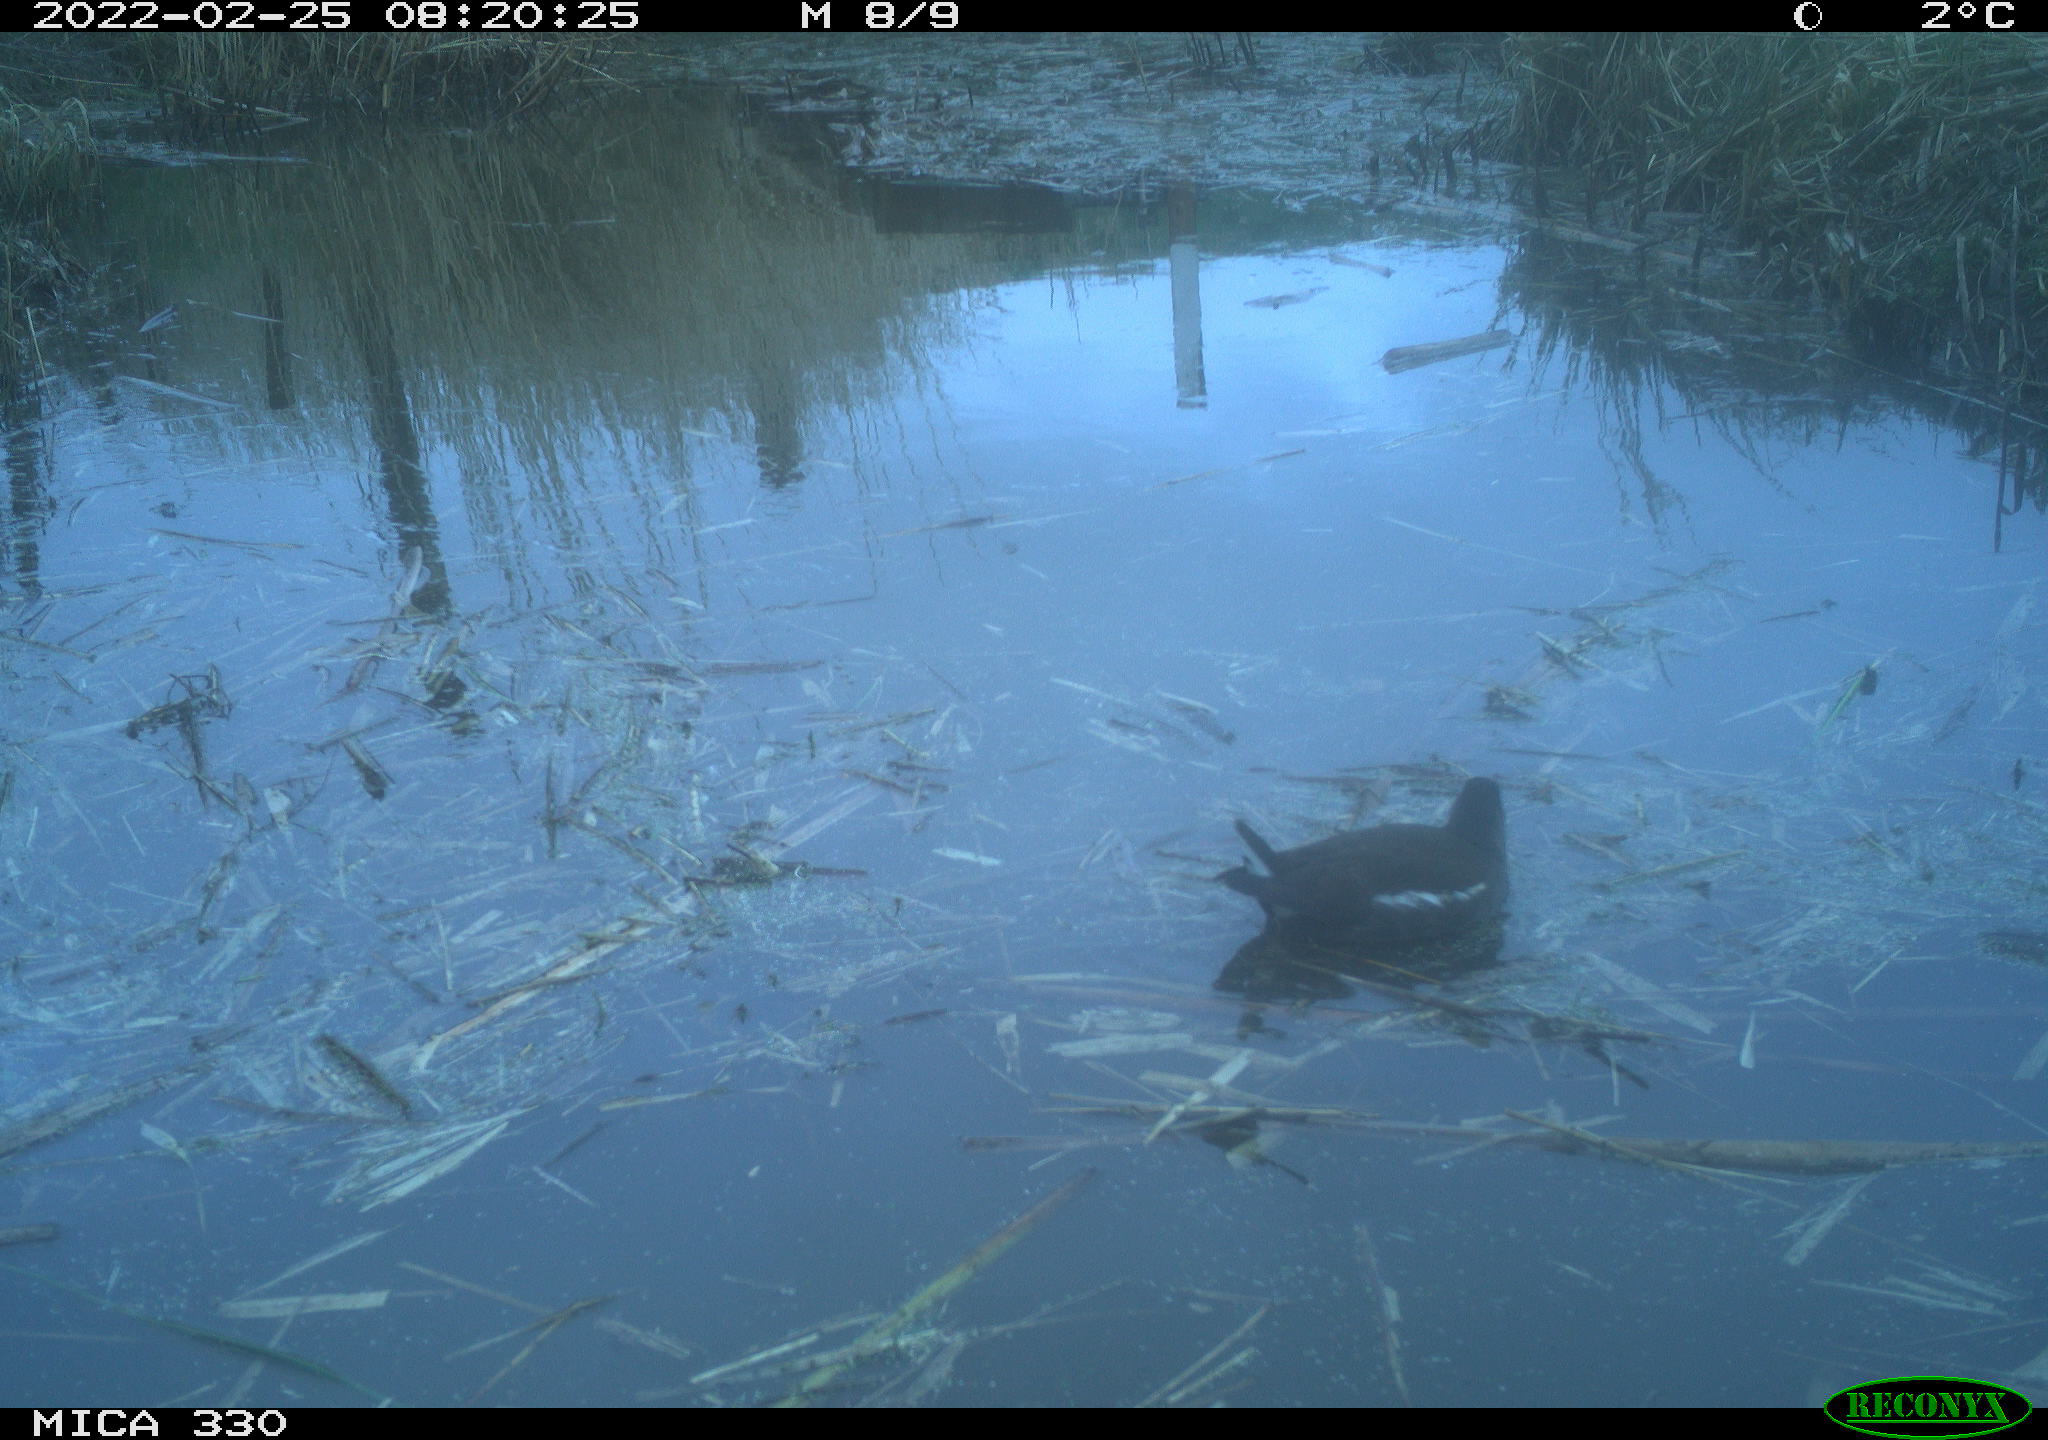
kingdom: Animalia
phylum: Chordata
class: Aves
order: Gruiformes
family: Rallidae
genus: Gallinula
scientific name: Gallinula chloropus
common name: Common moorhen
